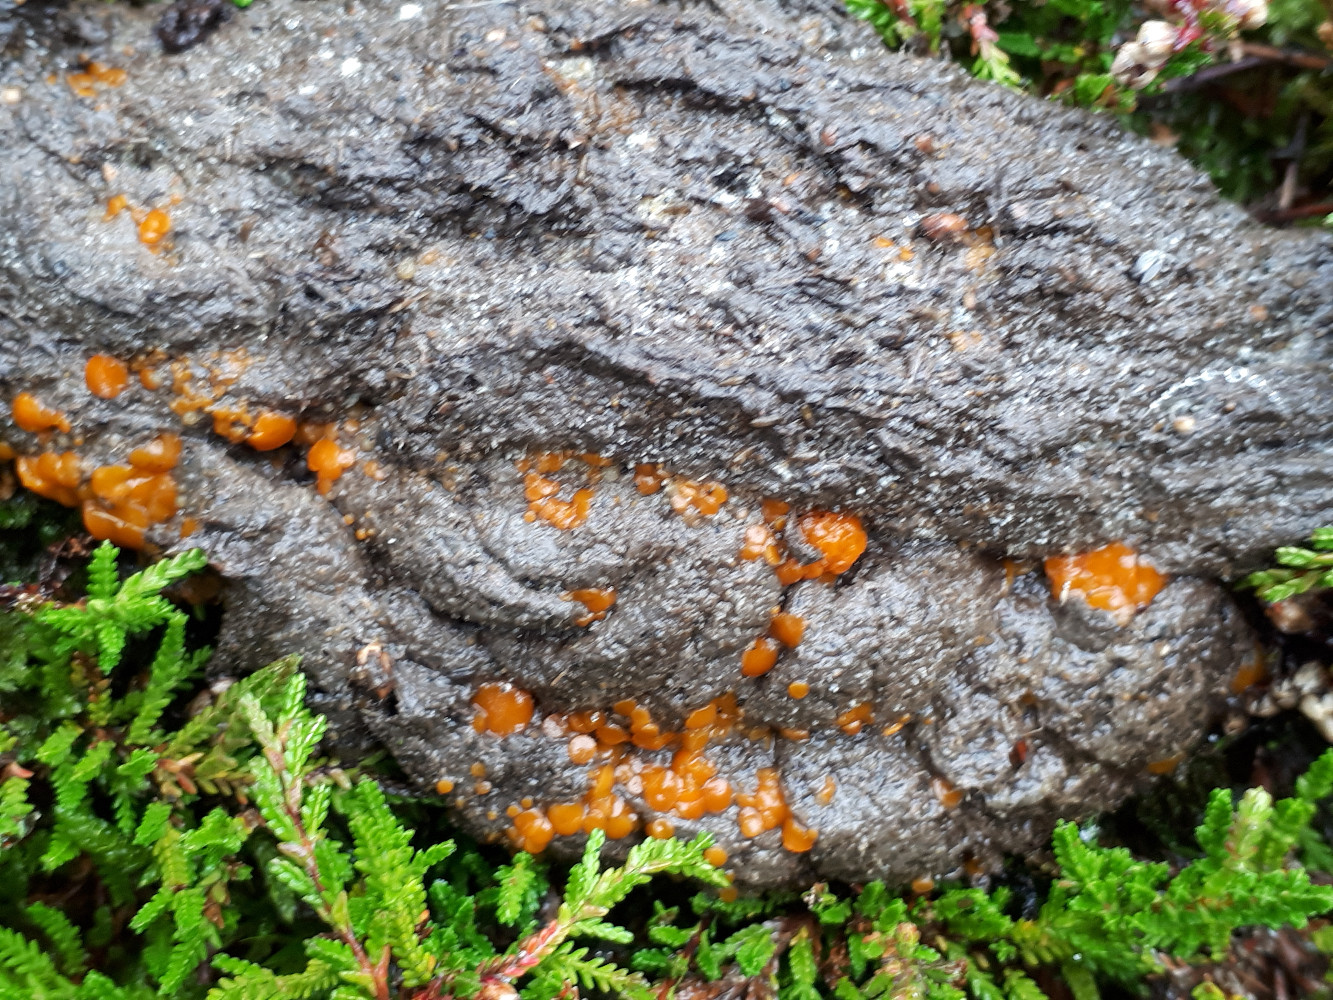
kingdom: Fungi
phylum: Ascomycota
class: Pezizomycetes
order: Pezizales
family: Pyronemataceae
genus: Cheilymenia
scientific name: Cheilymenia granulata
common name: møgbæger
